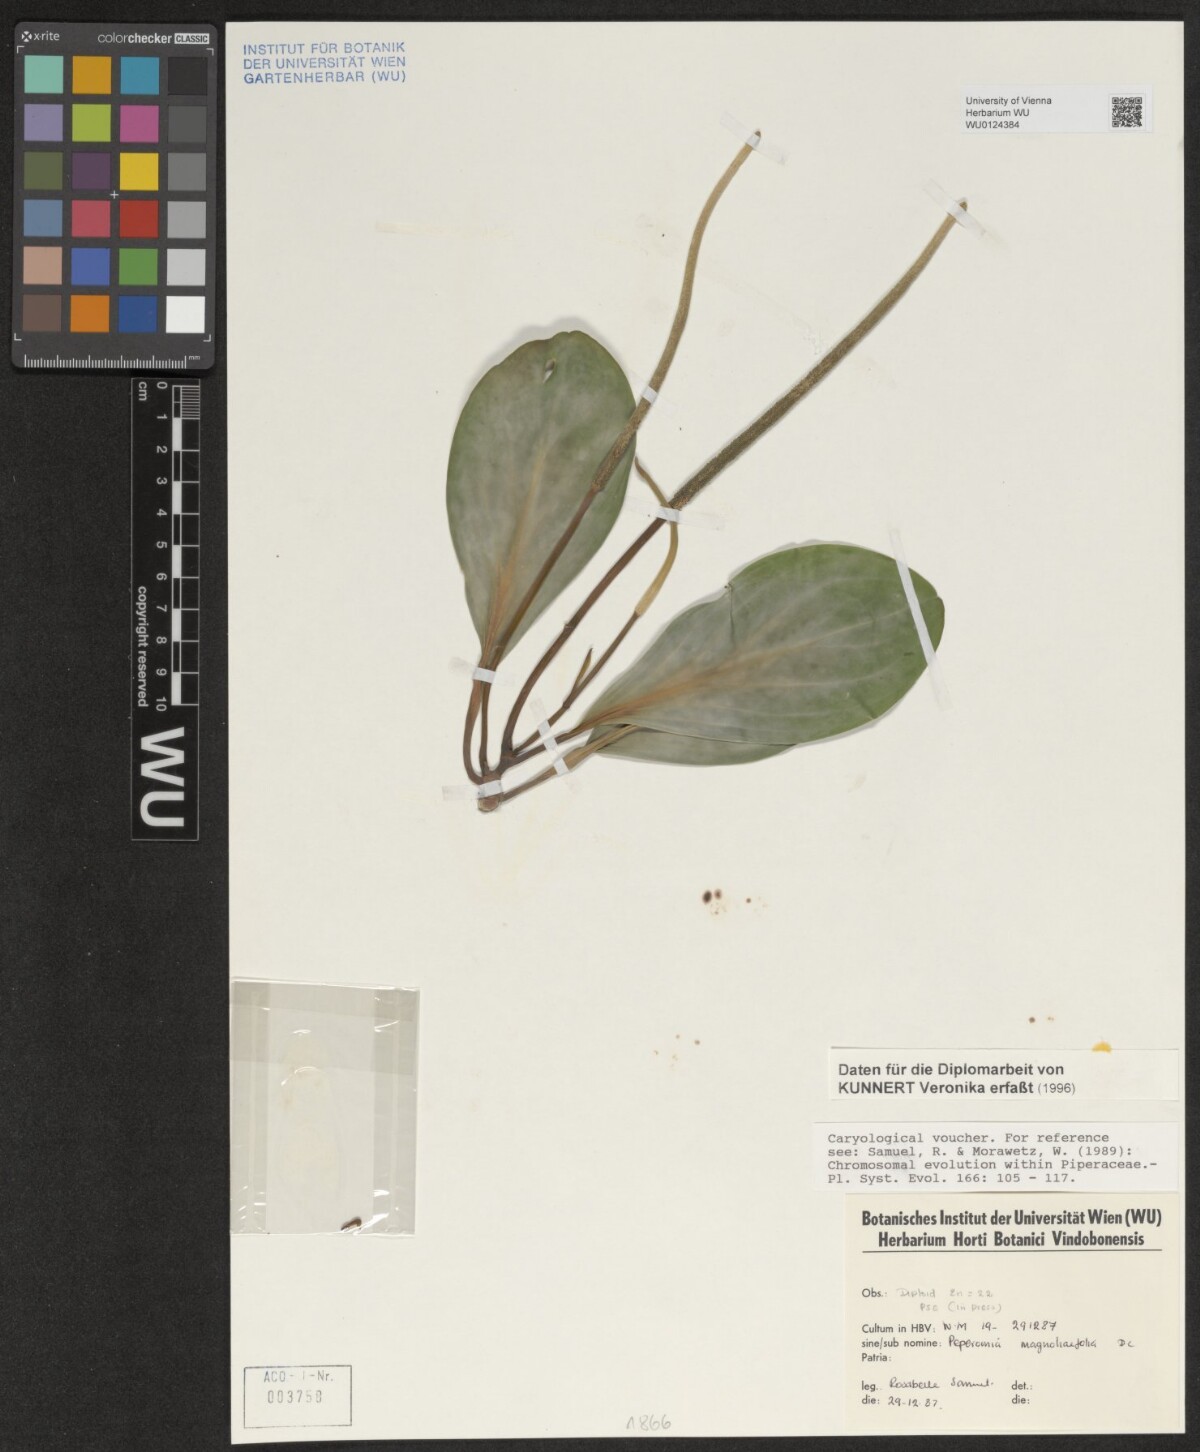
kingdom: Plantae
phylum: Tracheophyta
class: Magnoliopsida
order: Piperales
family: Piperaceae
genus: Peperomia
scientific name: Peperomia magnoliifolia
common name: Spoonleaf peperomia
